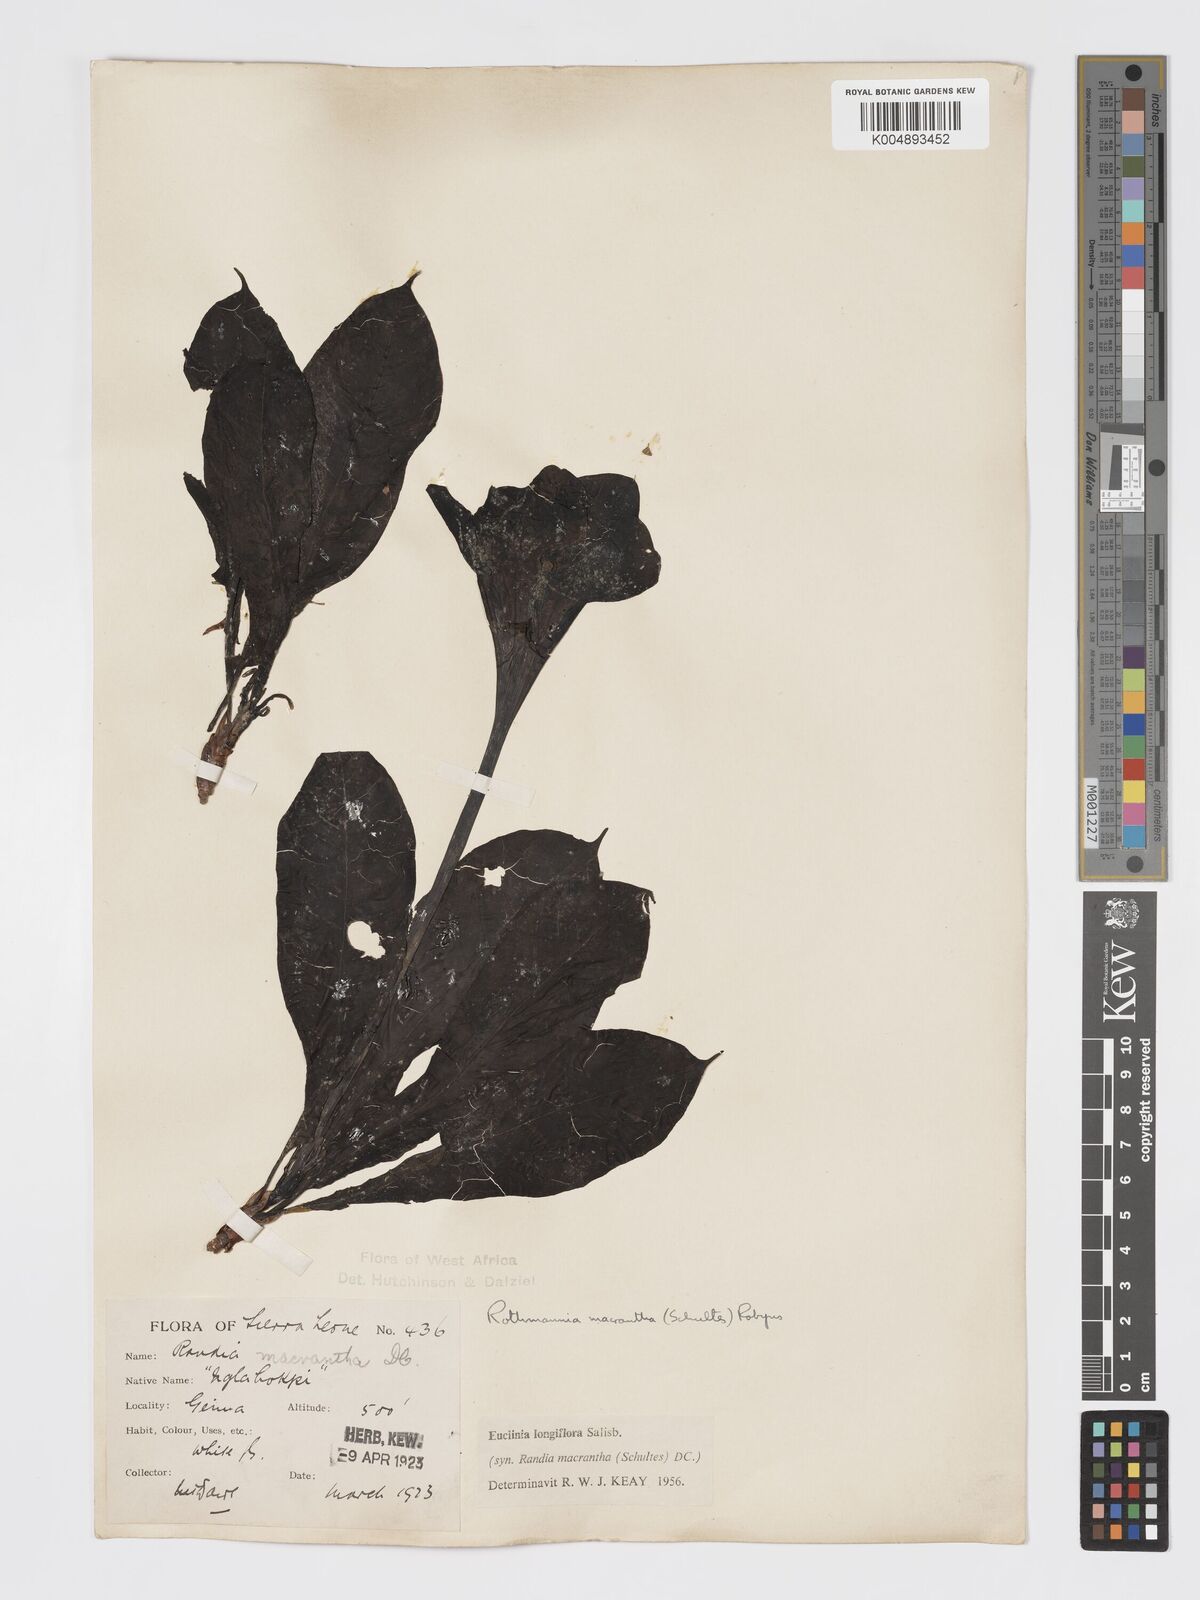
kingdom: Plantae
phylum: Tracheophyta
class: Magnoliopsida
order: Gentianales
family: Rubiaceae
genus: Euclinia
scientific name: Euclinia longiflora
